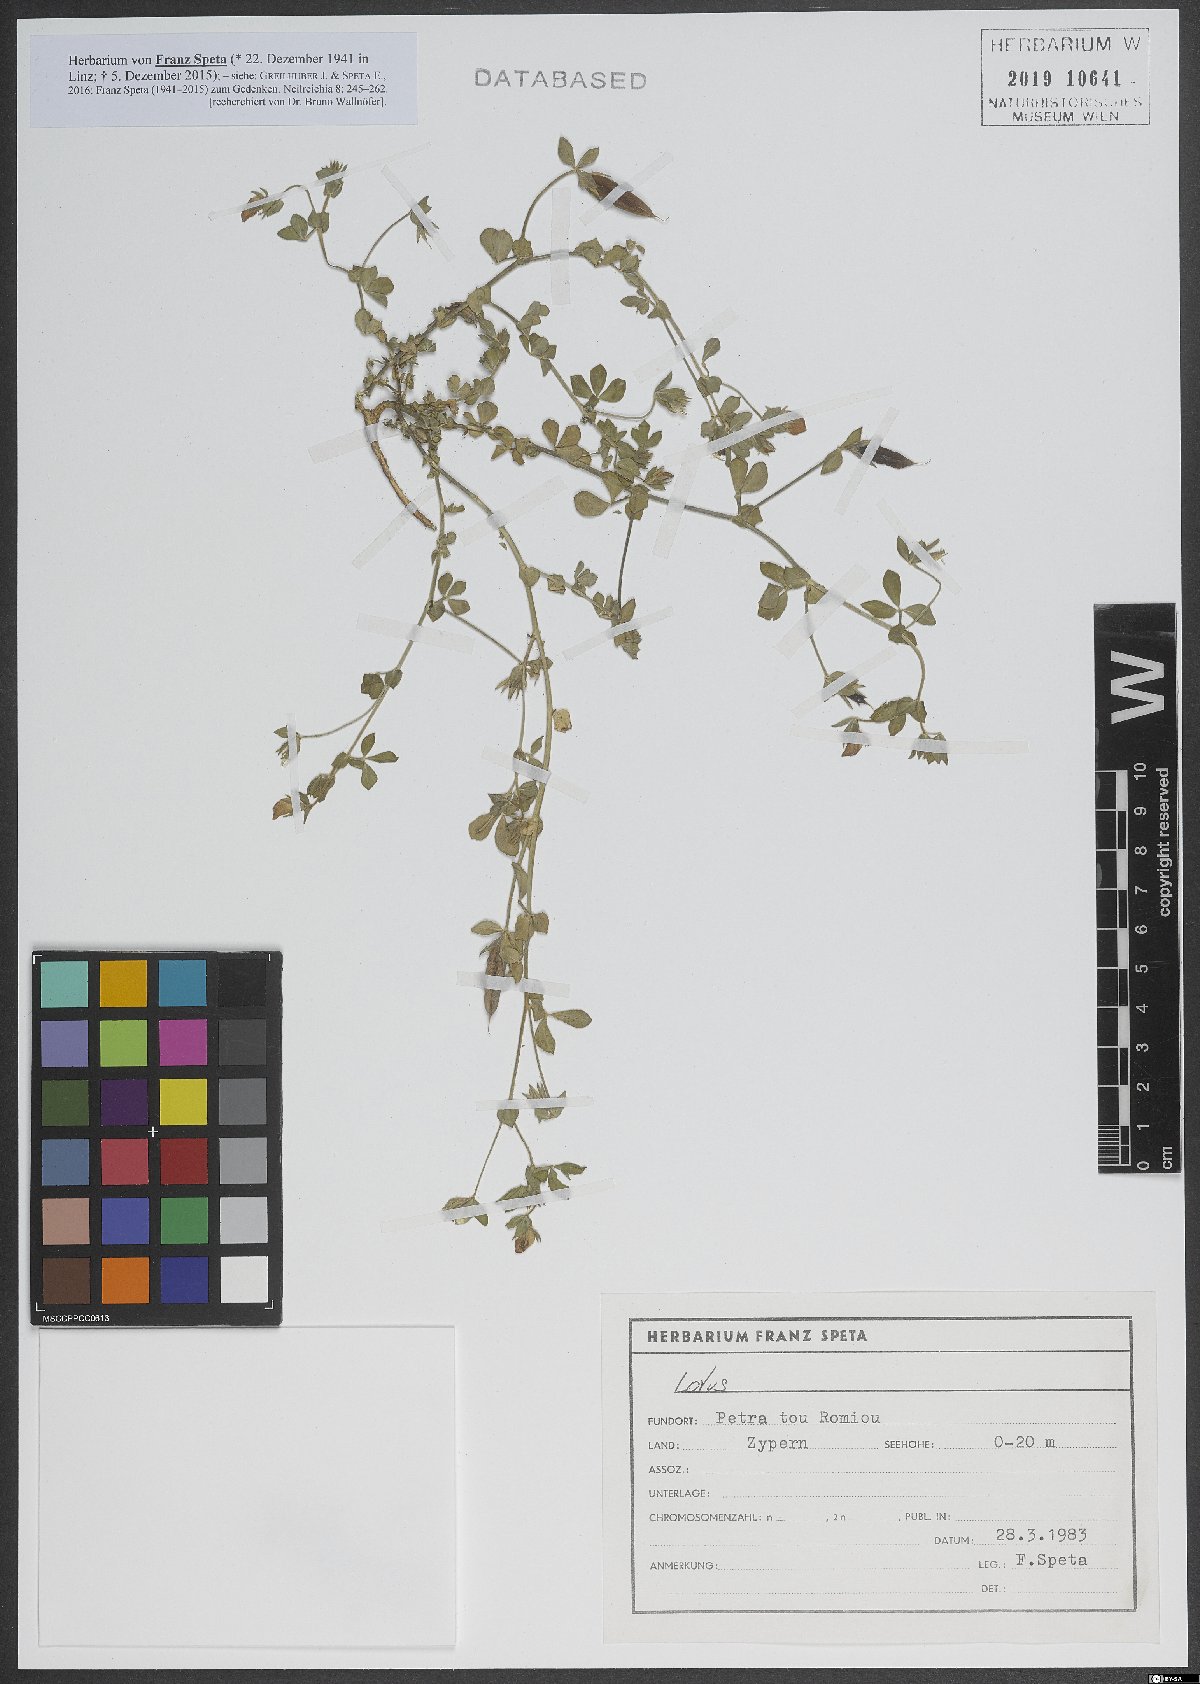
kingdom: Plantae
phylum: Tracheophyta
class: Magnoliopsida
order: Fabales
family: Fabaceae
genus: Lotus
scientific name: Lotus
